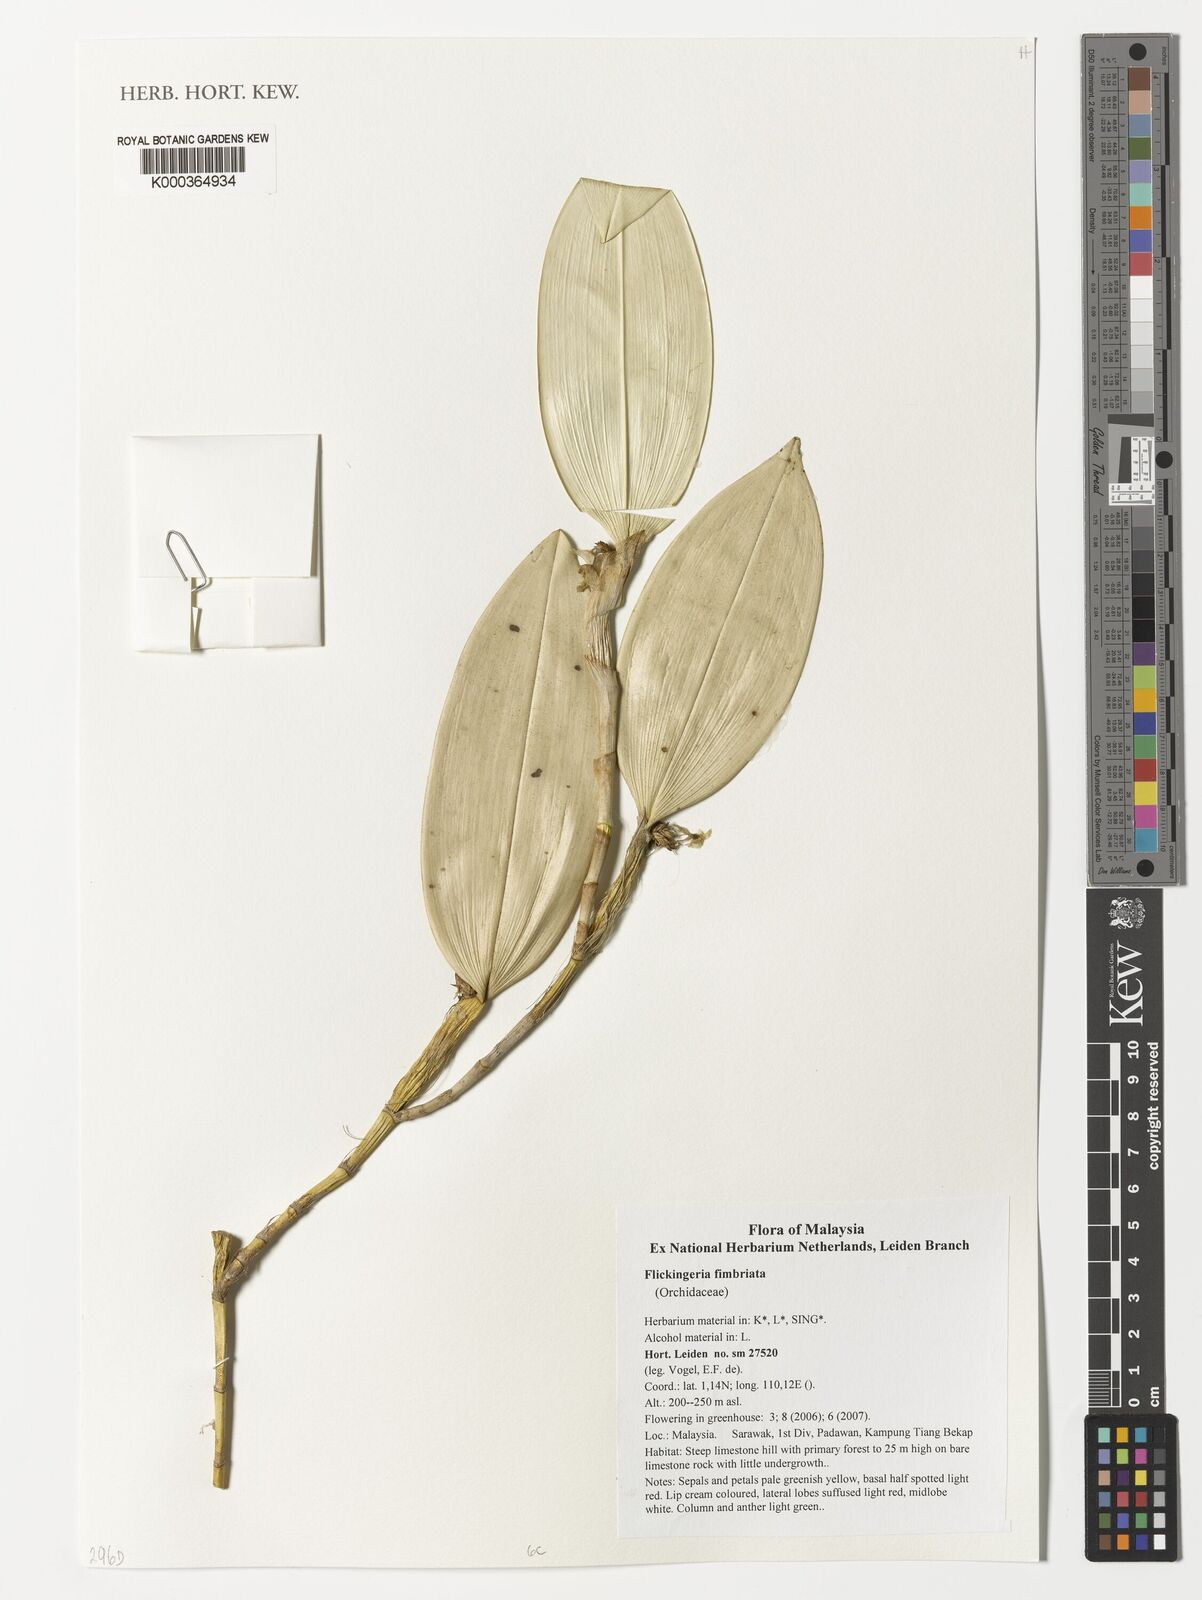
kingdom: Plantae
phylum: Tracheophyta
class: Liliopsida
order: Asparagales
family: Orchidaceae
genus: Dendrobium
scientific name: Dendrobium plicatile
